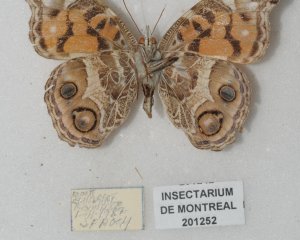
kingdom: Animalia
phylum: Arthropoda
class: Insecta
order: Lepidoptera
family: Nymphalidae
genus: Vanessa
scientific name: Vanessa virginiensis
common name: American Lady
